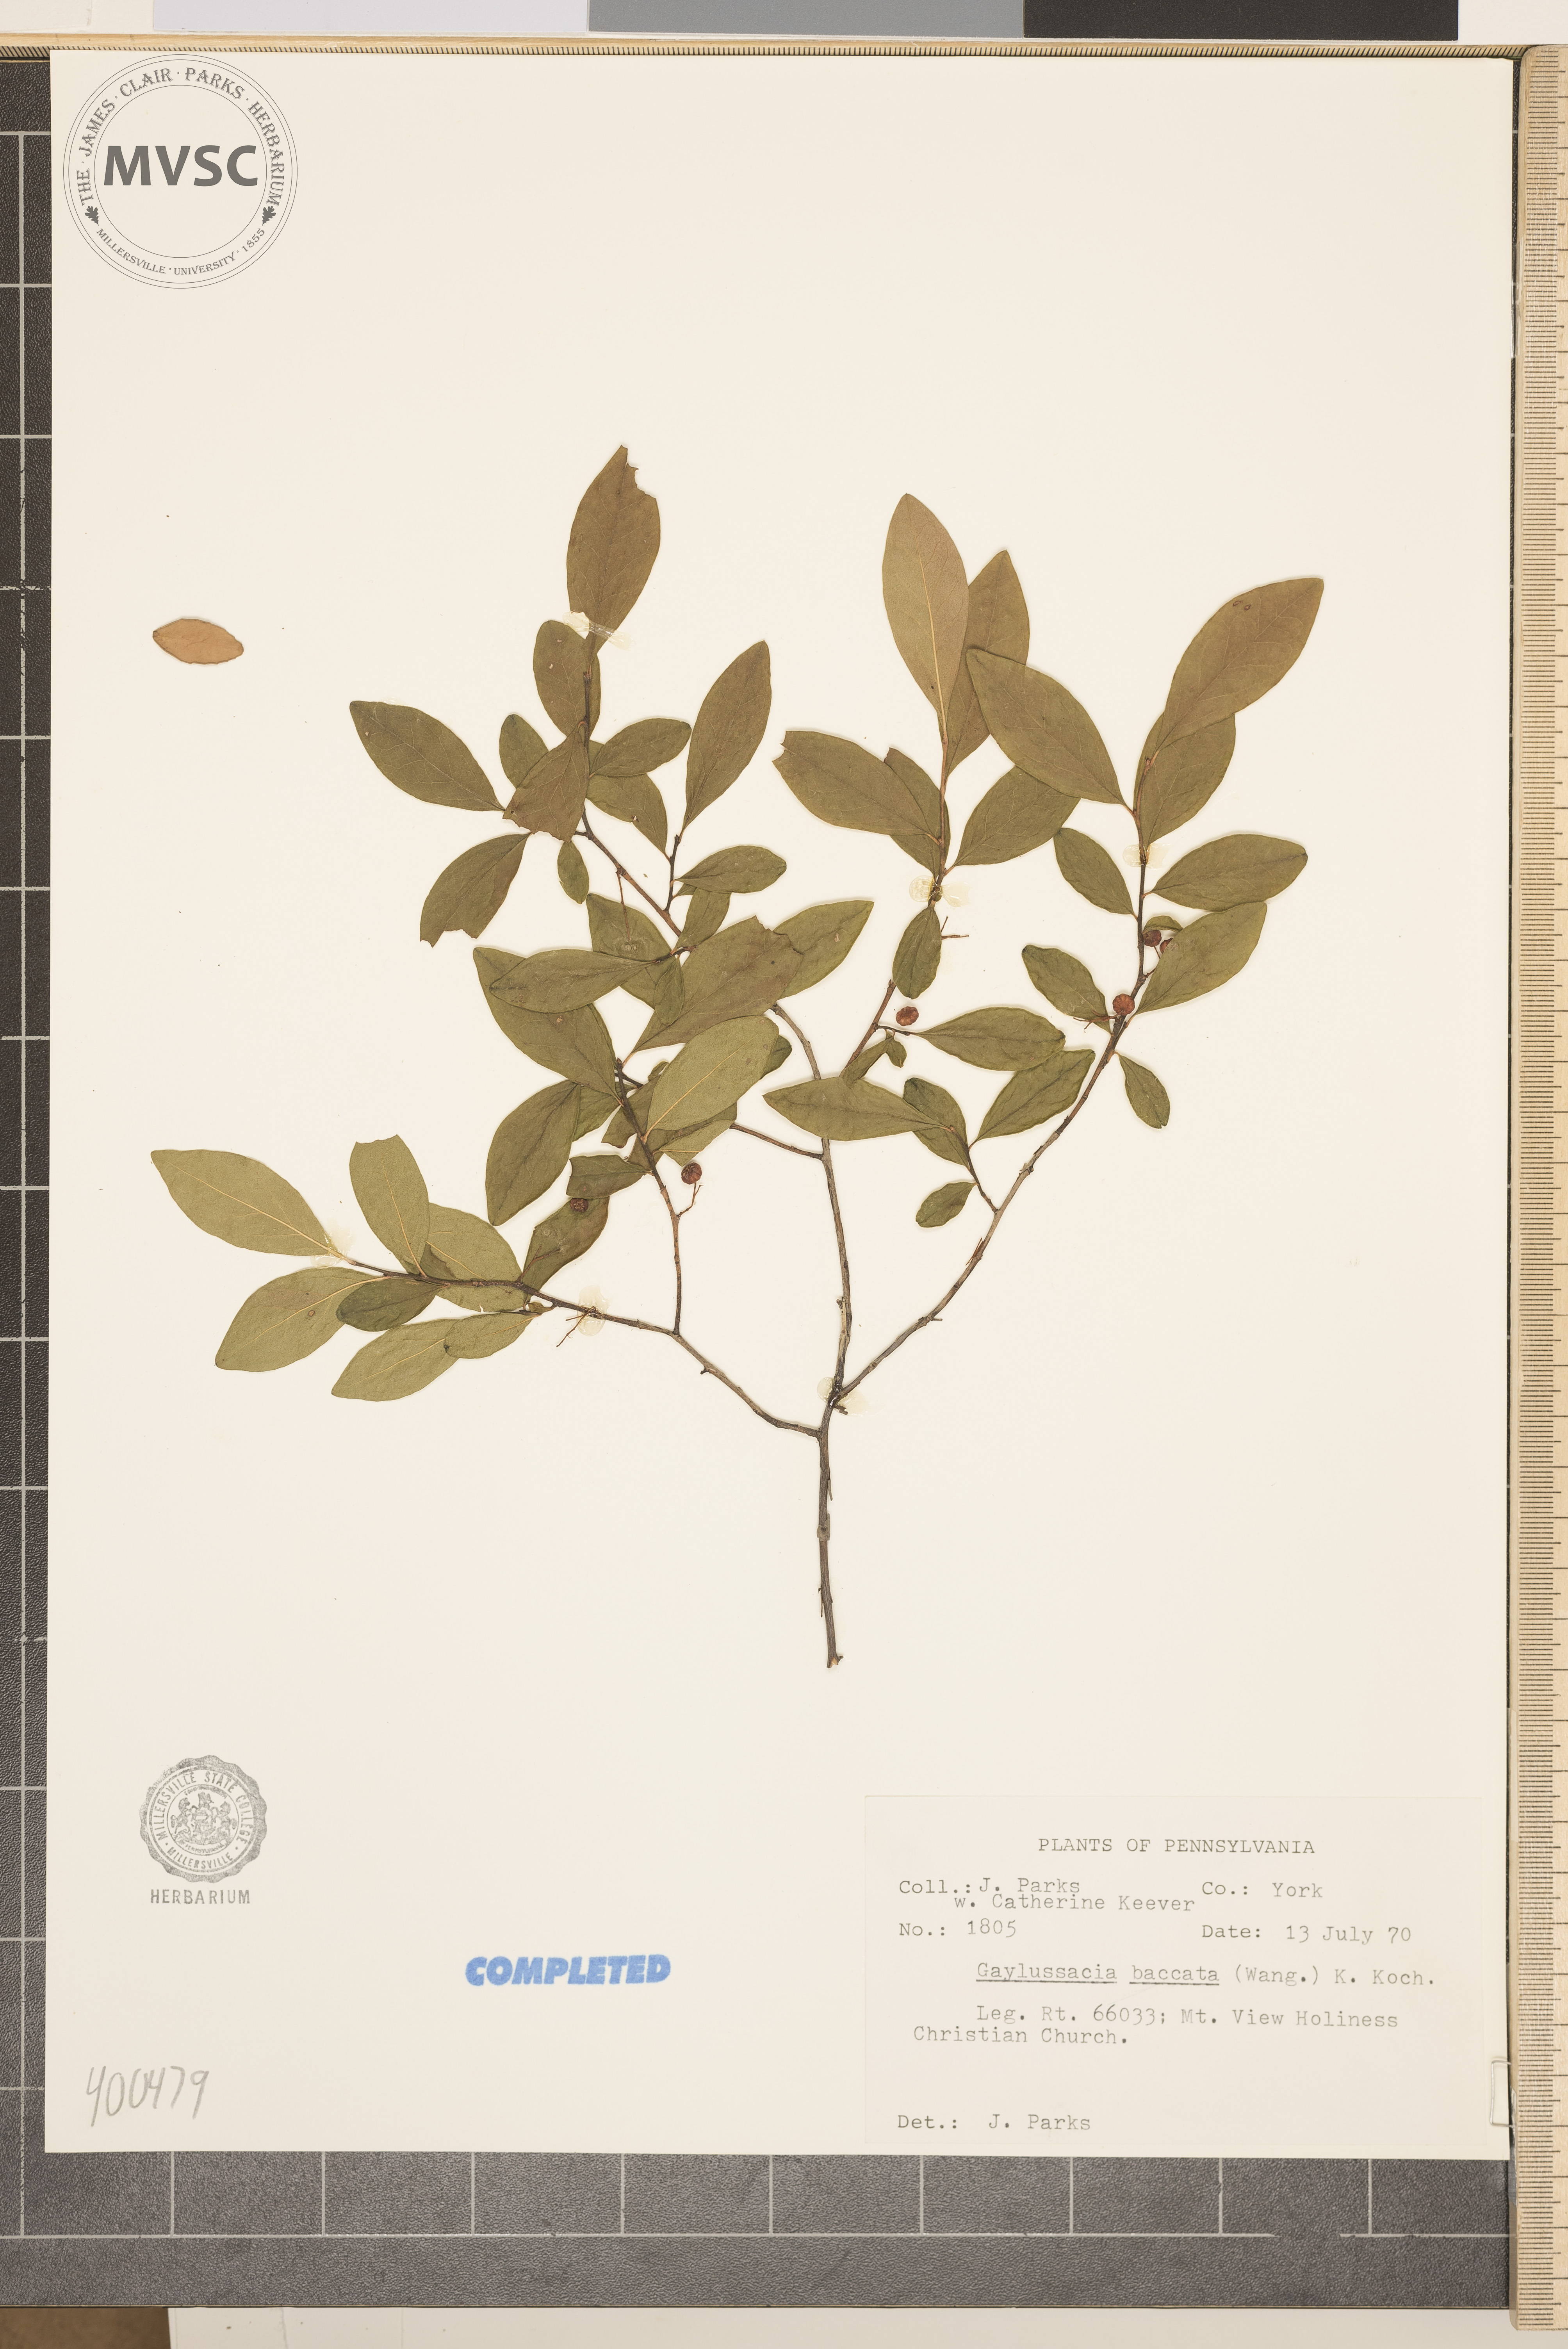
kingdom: Plantae
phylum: Tracheophyta
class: Magnoliopsida
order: Ericales
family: Ericaceae
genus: Gaylussacia
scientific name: Gaylussacia baccata
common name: Black huckleberry
